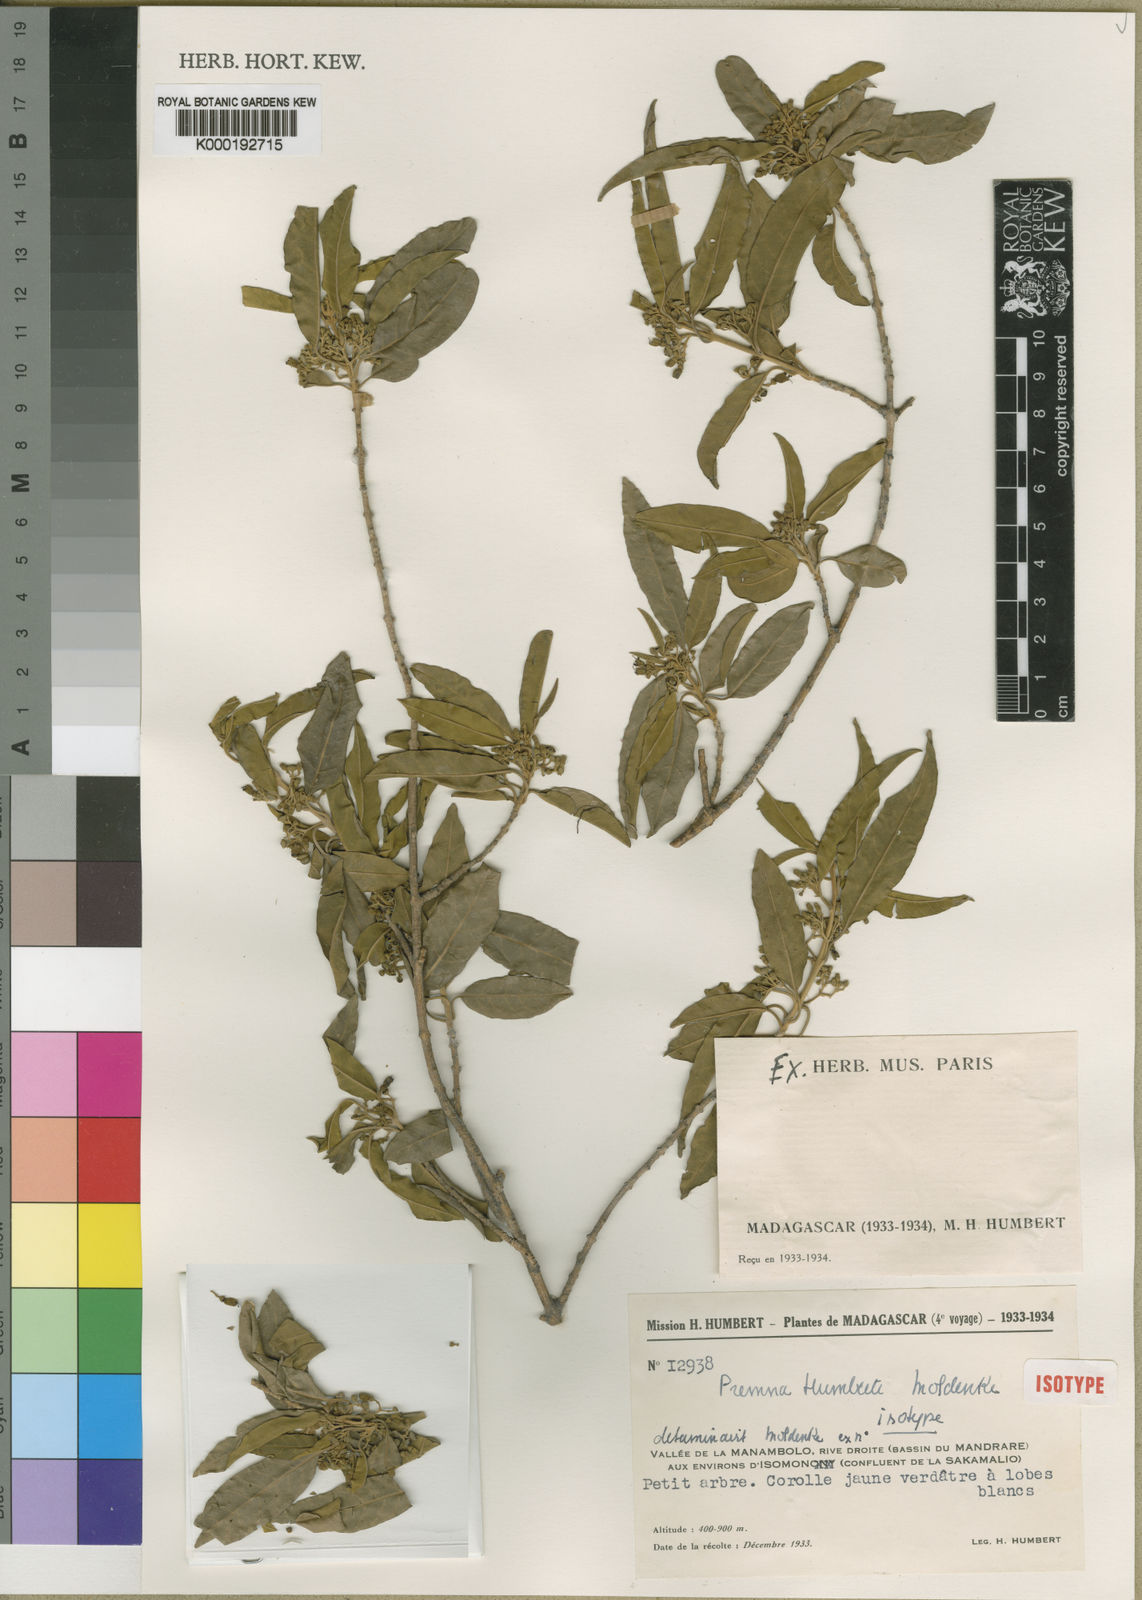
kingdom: Plantae
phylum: Tracheophyta
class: Magnoliopsida
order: Lamiales
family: Lamiaceae
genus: Premna
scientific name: Premna humbertii
